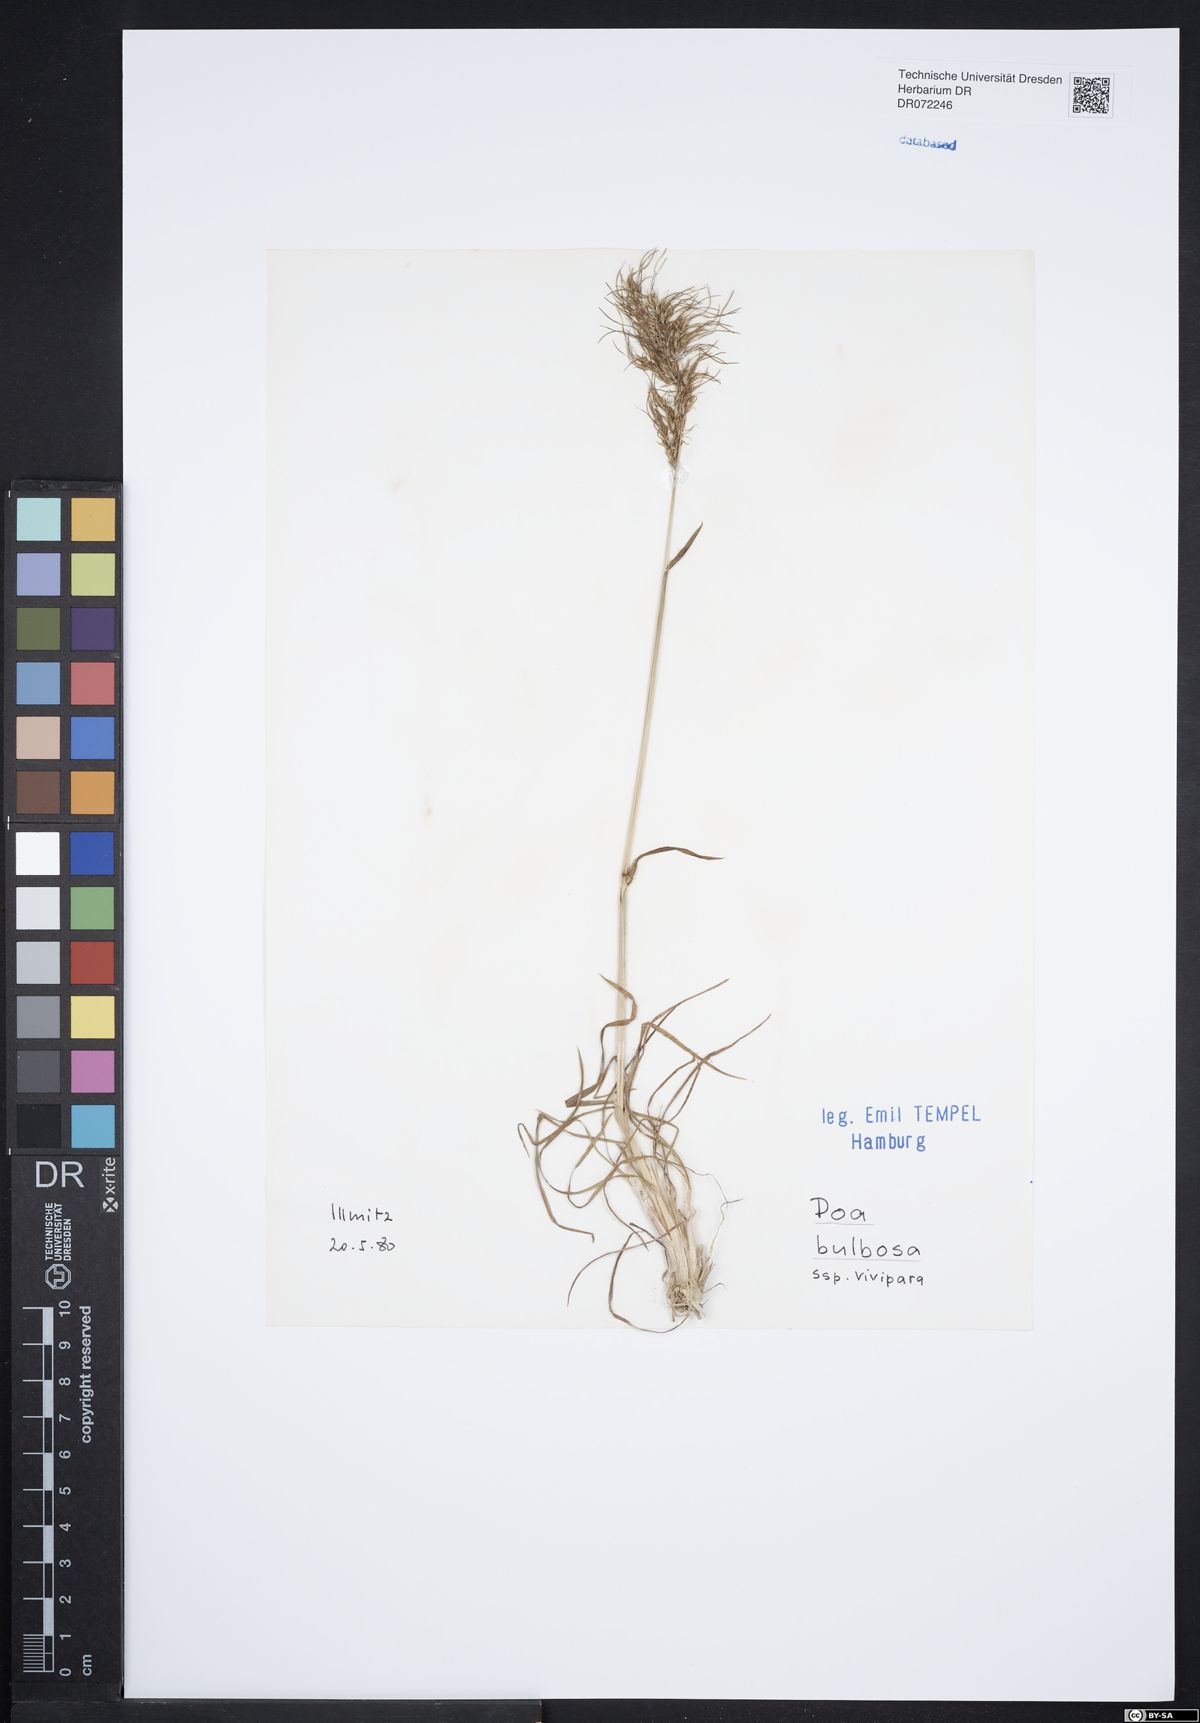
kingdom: Plantae
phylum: Tracheophyta
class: Liliopsida
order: Poales
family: Poaceae
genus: Poa
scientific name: Poa bulbosa
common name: Bulbous bluegrass
